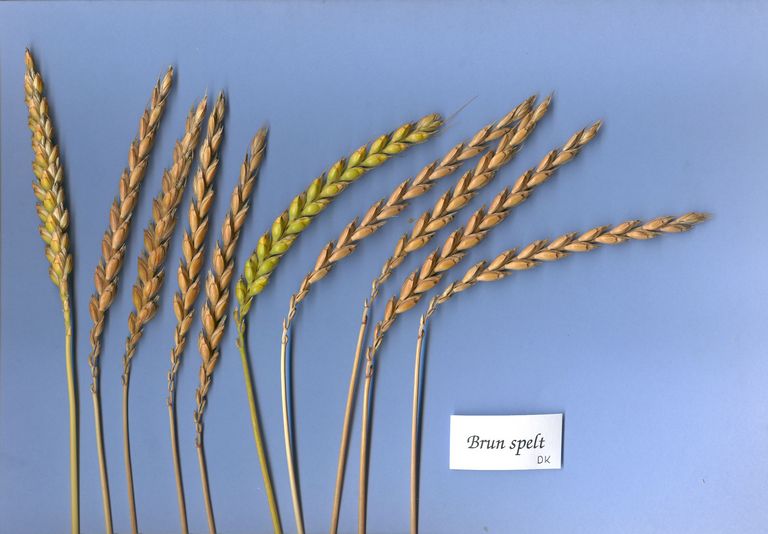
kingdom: Plantae
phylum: Tracheophyta
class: Liliopsida
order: Poales
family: Poaceae
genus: Triticum
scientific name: Triticum aestivum
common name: Common wheat
